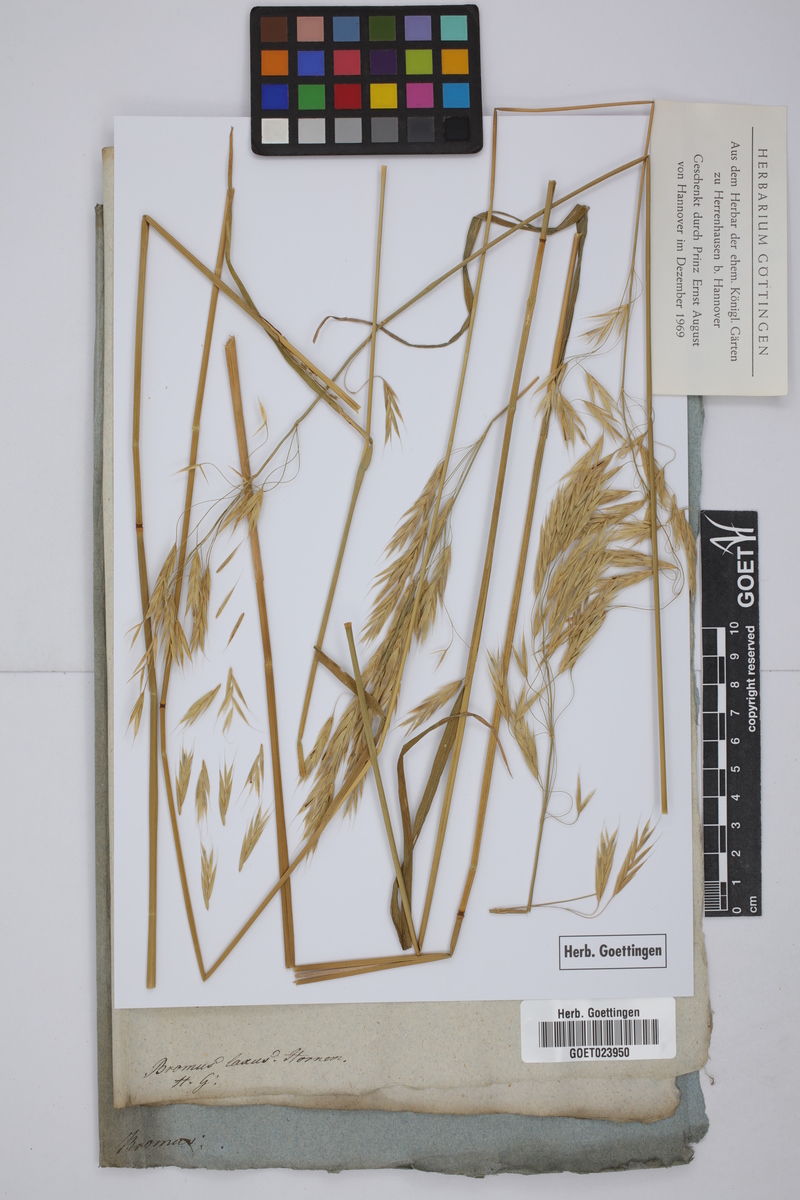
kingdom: Plantae
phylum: Tracheophyta
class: Liliopsida
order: Poales
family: Poaceae
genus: Bromus
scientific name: Bromus inermis
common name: Smooth brome
